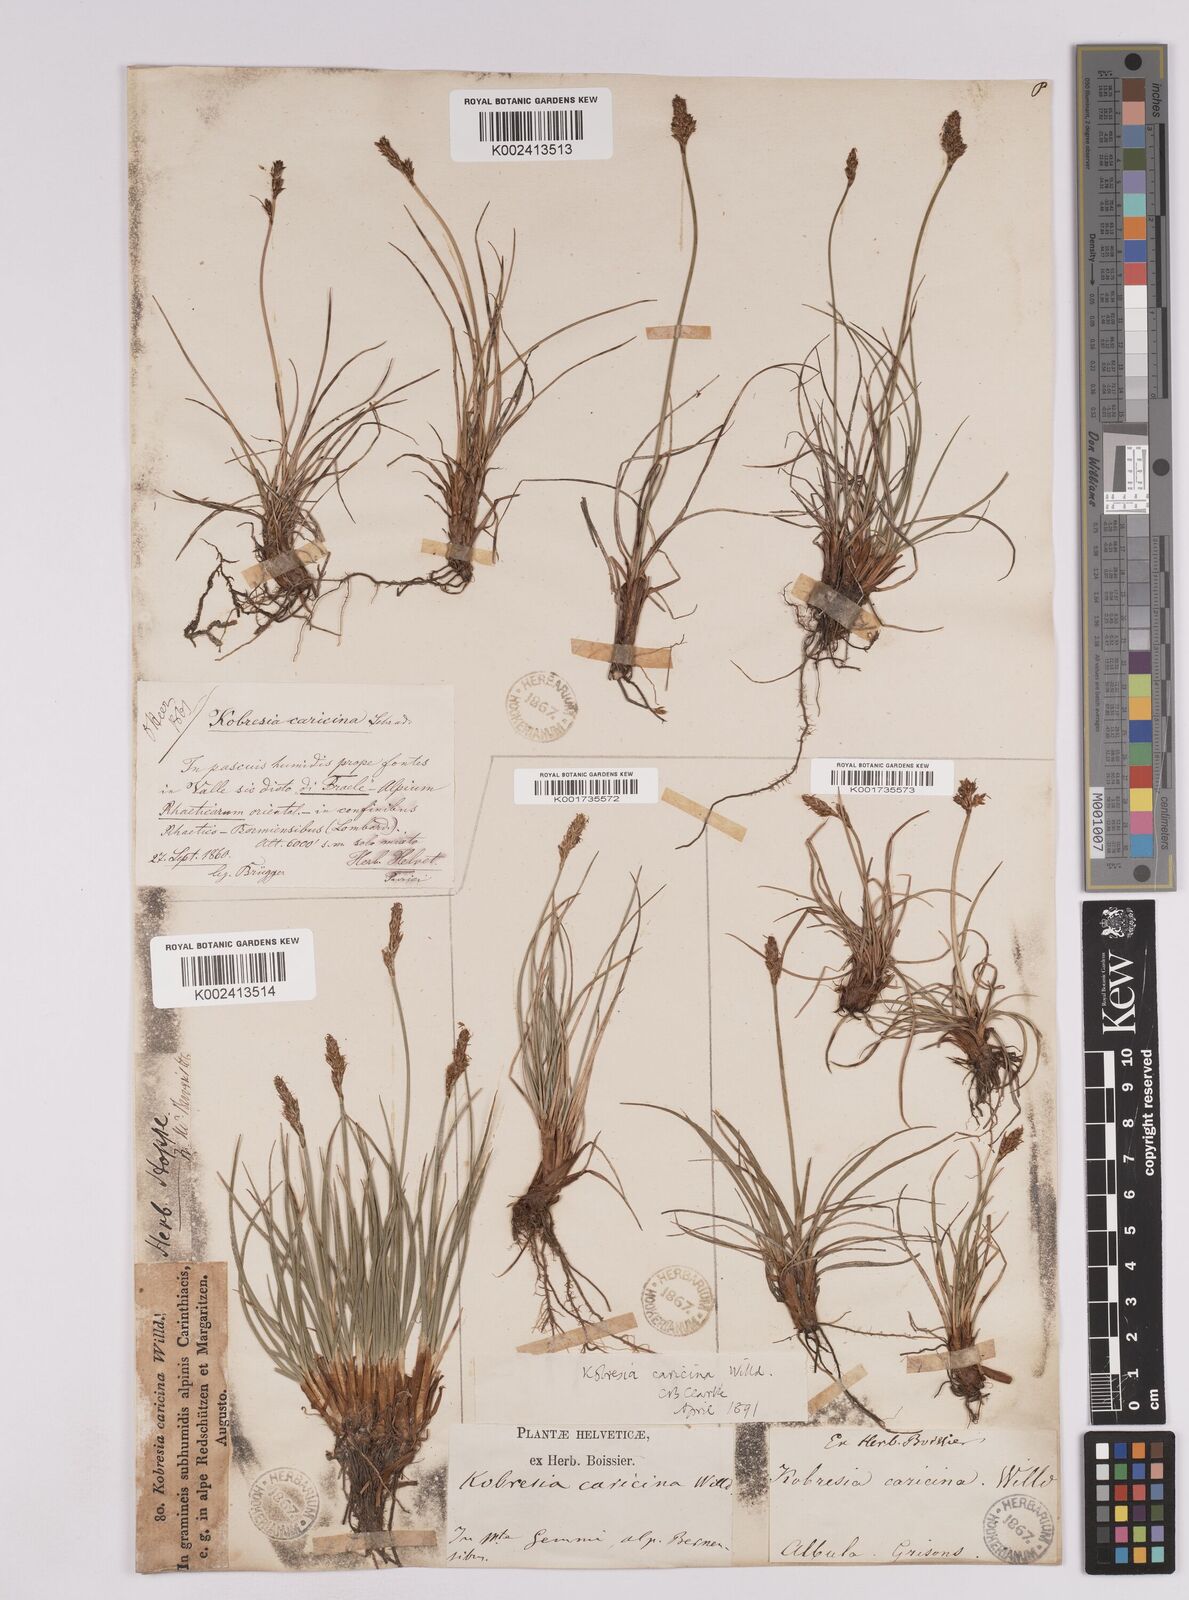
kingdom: Plantae
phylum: Tracheophyta
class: Liliopsida
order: Poales
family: Cyperaceae
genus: Carex
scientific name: Carex simpliciuscula
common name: Simple bog sedge
